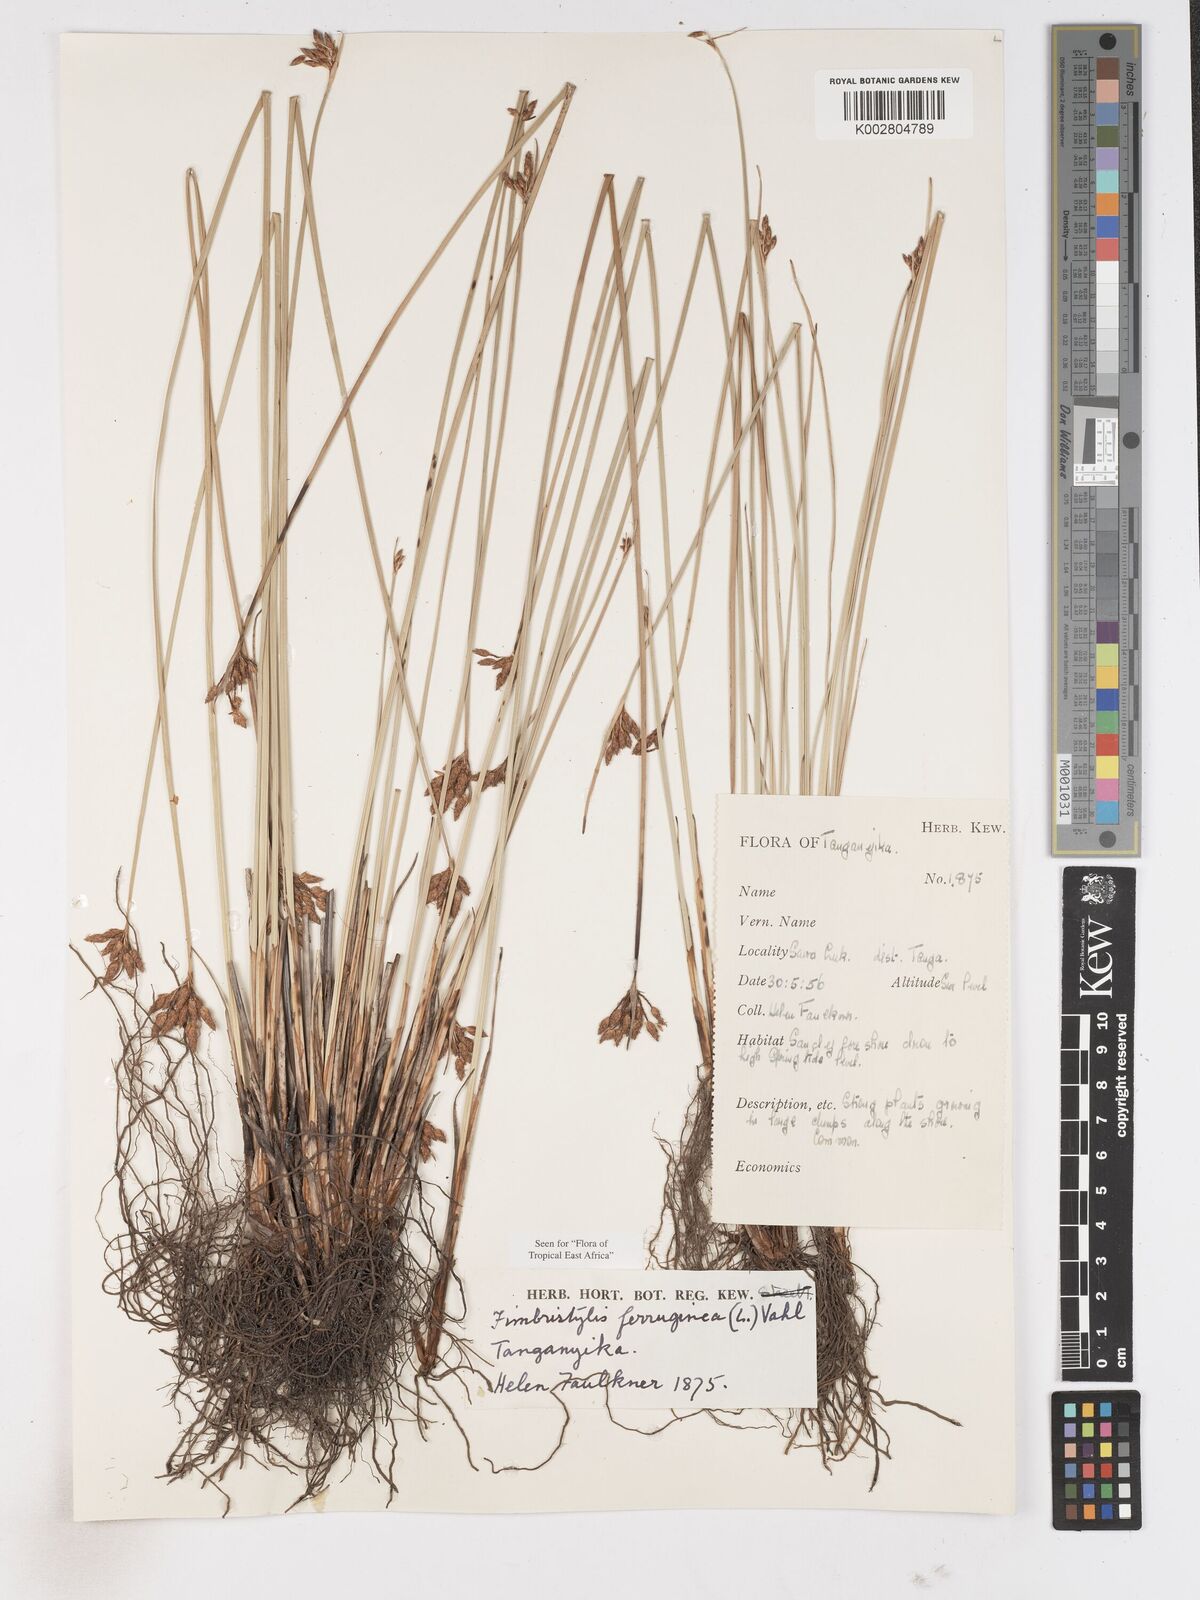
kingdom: Plantae
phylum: Tracheophyta
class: Liliopsida
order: Poales
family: Cyperaceae
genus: Fimbristylis
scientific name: Fimbristylis ferruginea
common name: West indian fimbry
